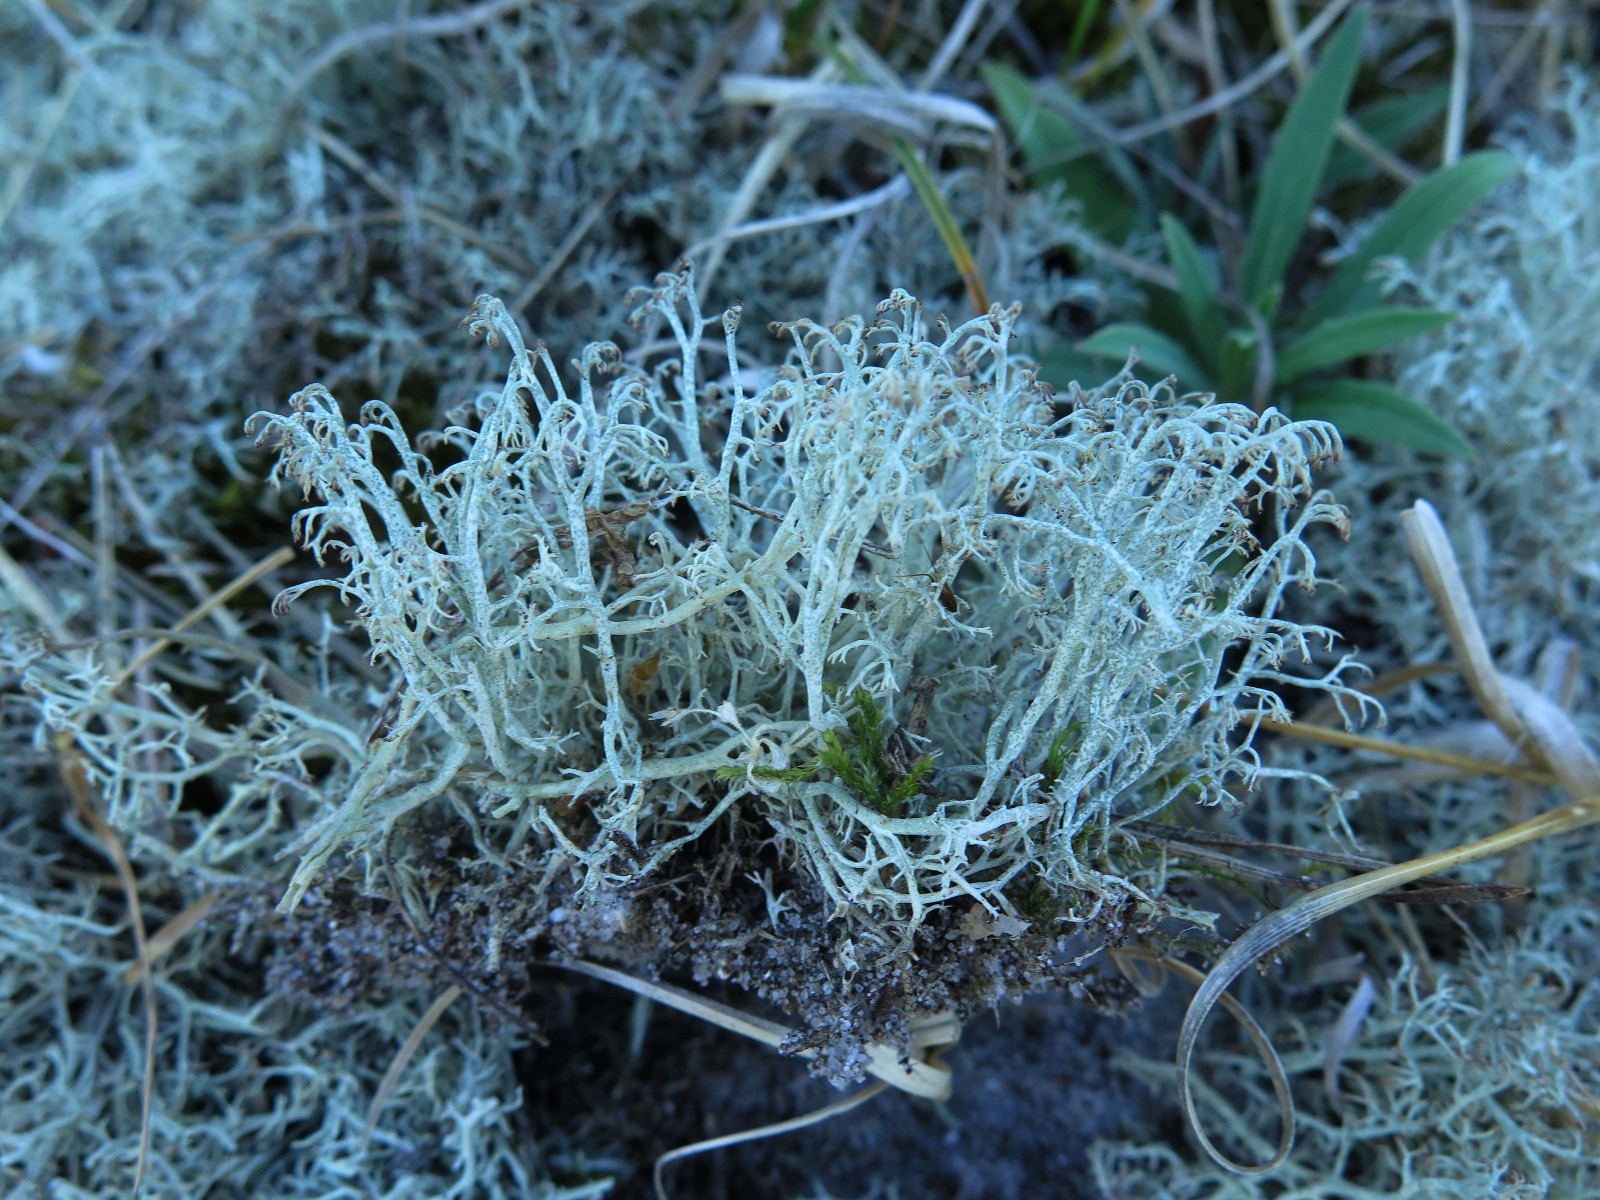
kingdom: Fungi
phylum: Ascomycota
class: Lecanoromycetes
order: Lecanorales
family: Cladoniaceae
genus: Cladonia
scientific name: Cladonia ciliata
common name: spinkel rensdyrlav
